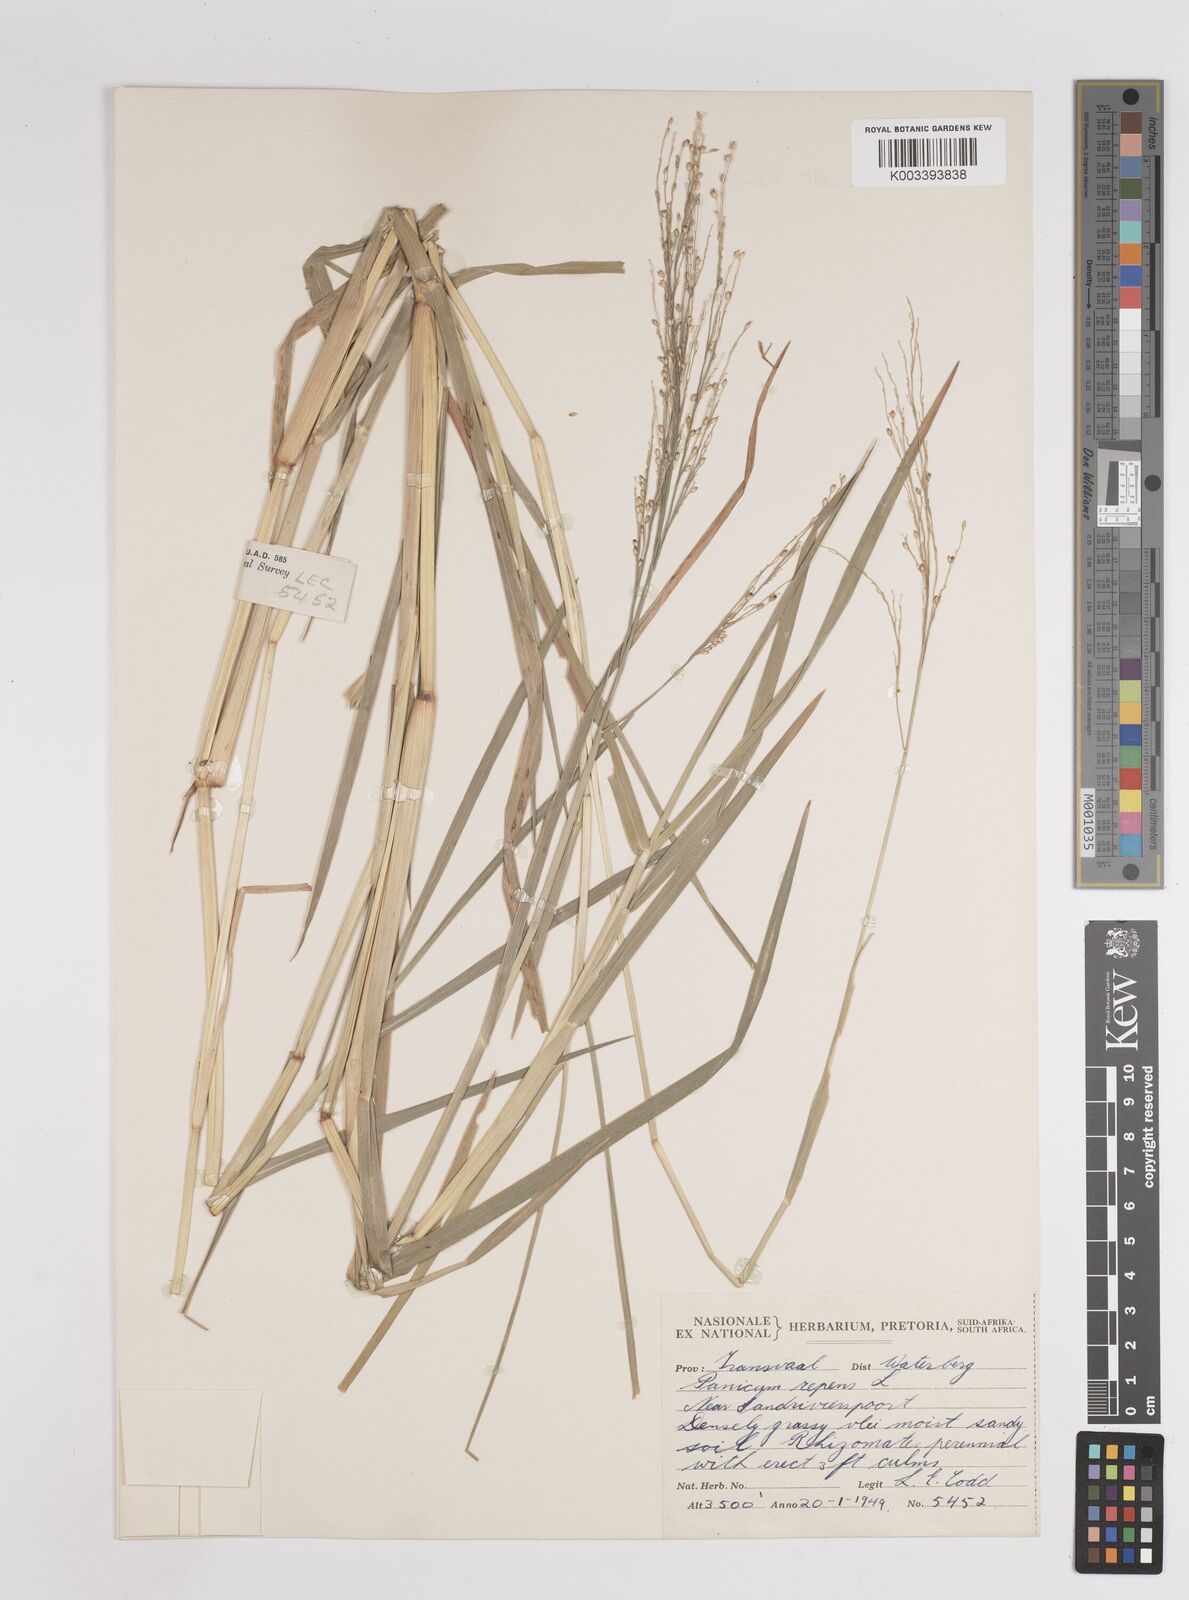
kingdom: Plantae
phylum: Tracheophyta
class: Liliopsida
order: Poales
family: Poaceae
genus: Panicum
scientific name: Panicum repens
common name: Torpedo grass
